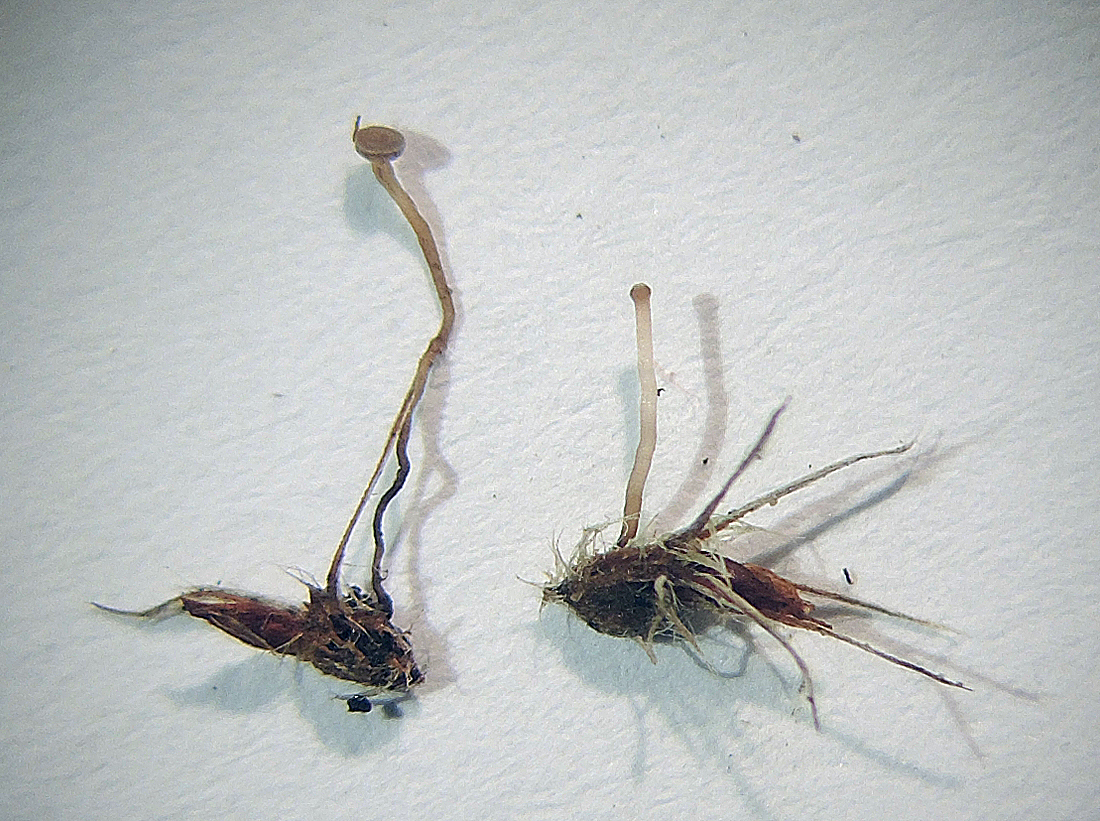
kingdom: Fungi
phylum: Ascomycota
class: Leotiomycetes
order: Helotiales
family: Sclerotiniaceae
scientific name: Sclerotiniaceae
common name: knoldskivefamilien
